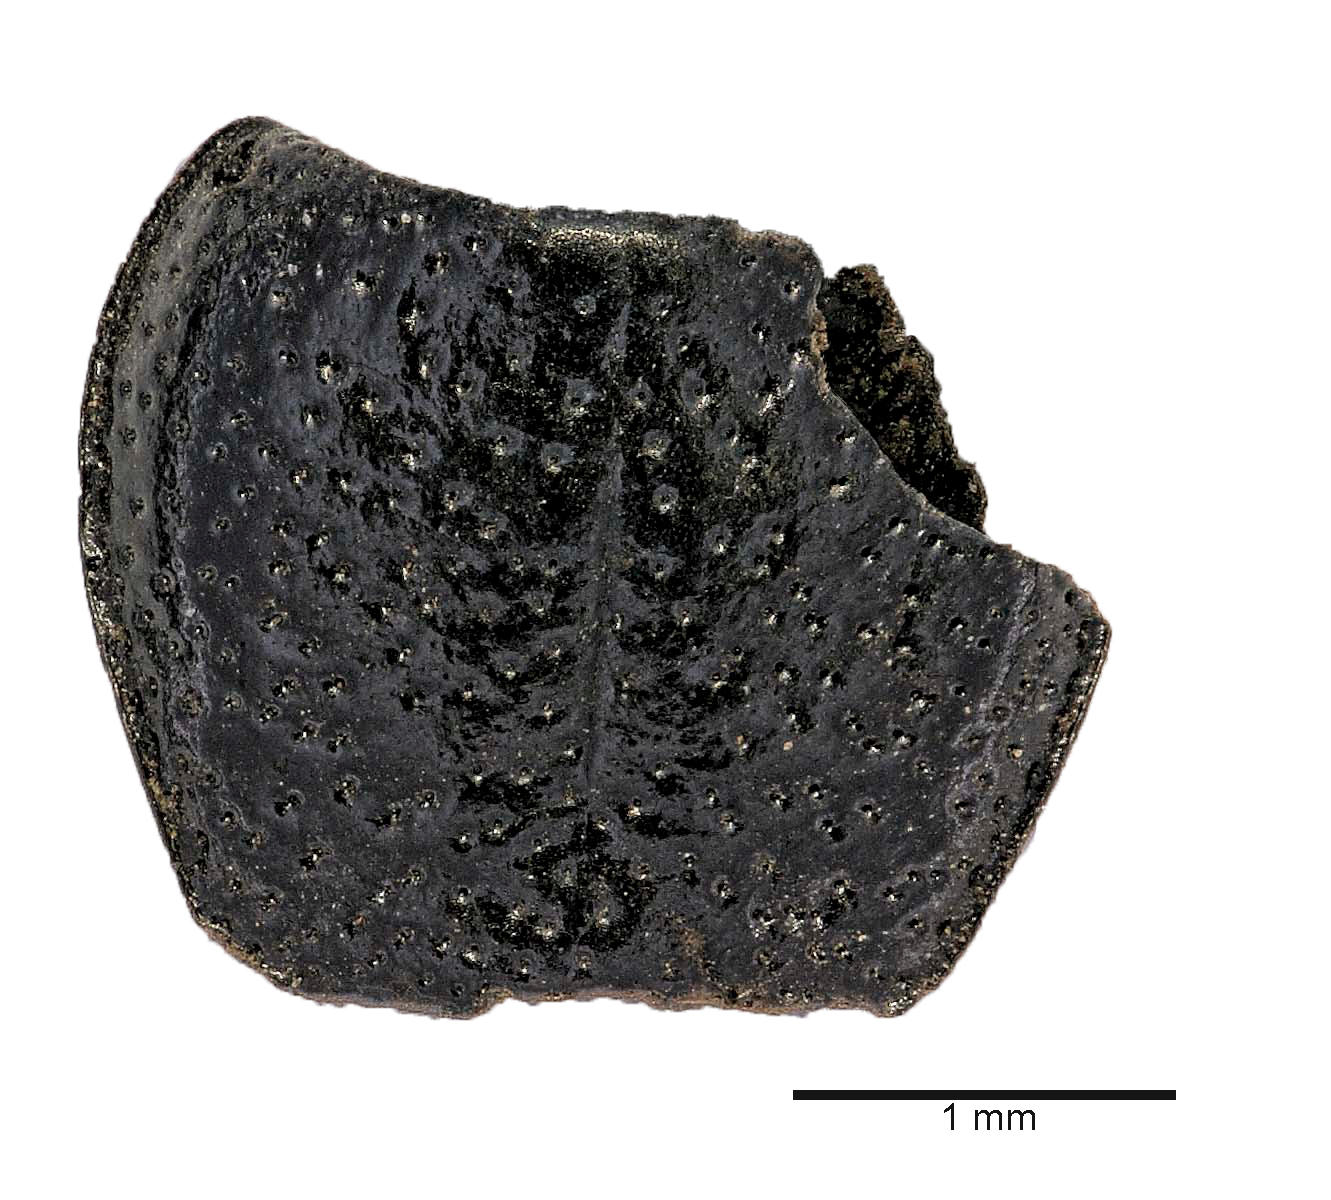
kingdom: Animalia
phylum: Arthropoda
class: Insecta
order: Coleoptera
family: Carabidae
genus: Dicheirus
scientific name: Dicheirus dilatatus
